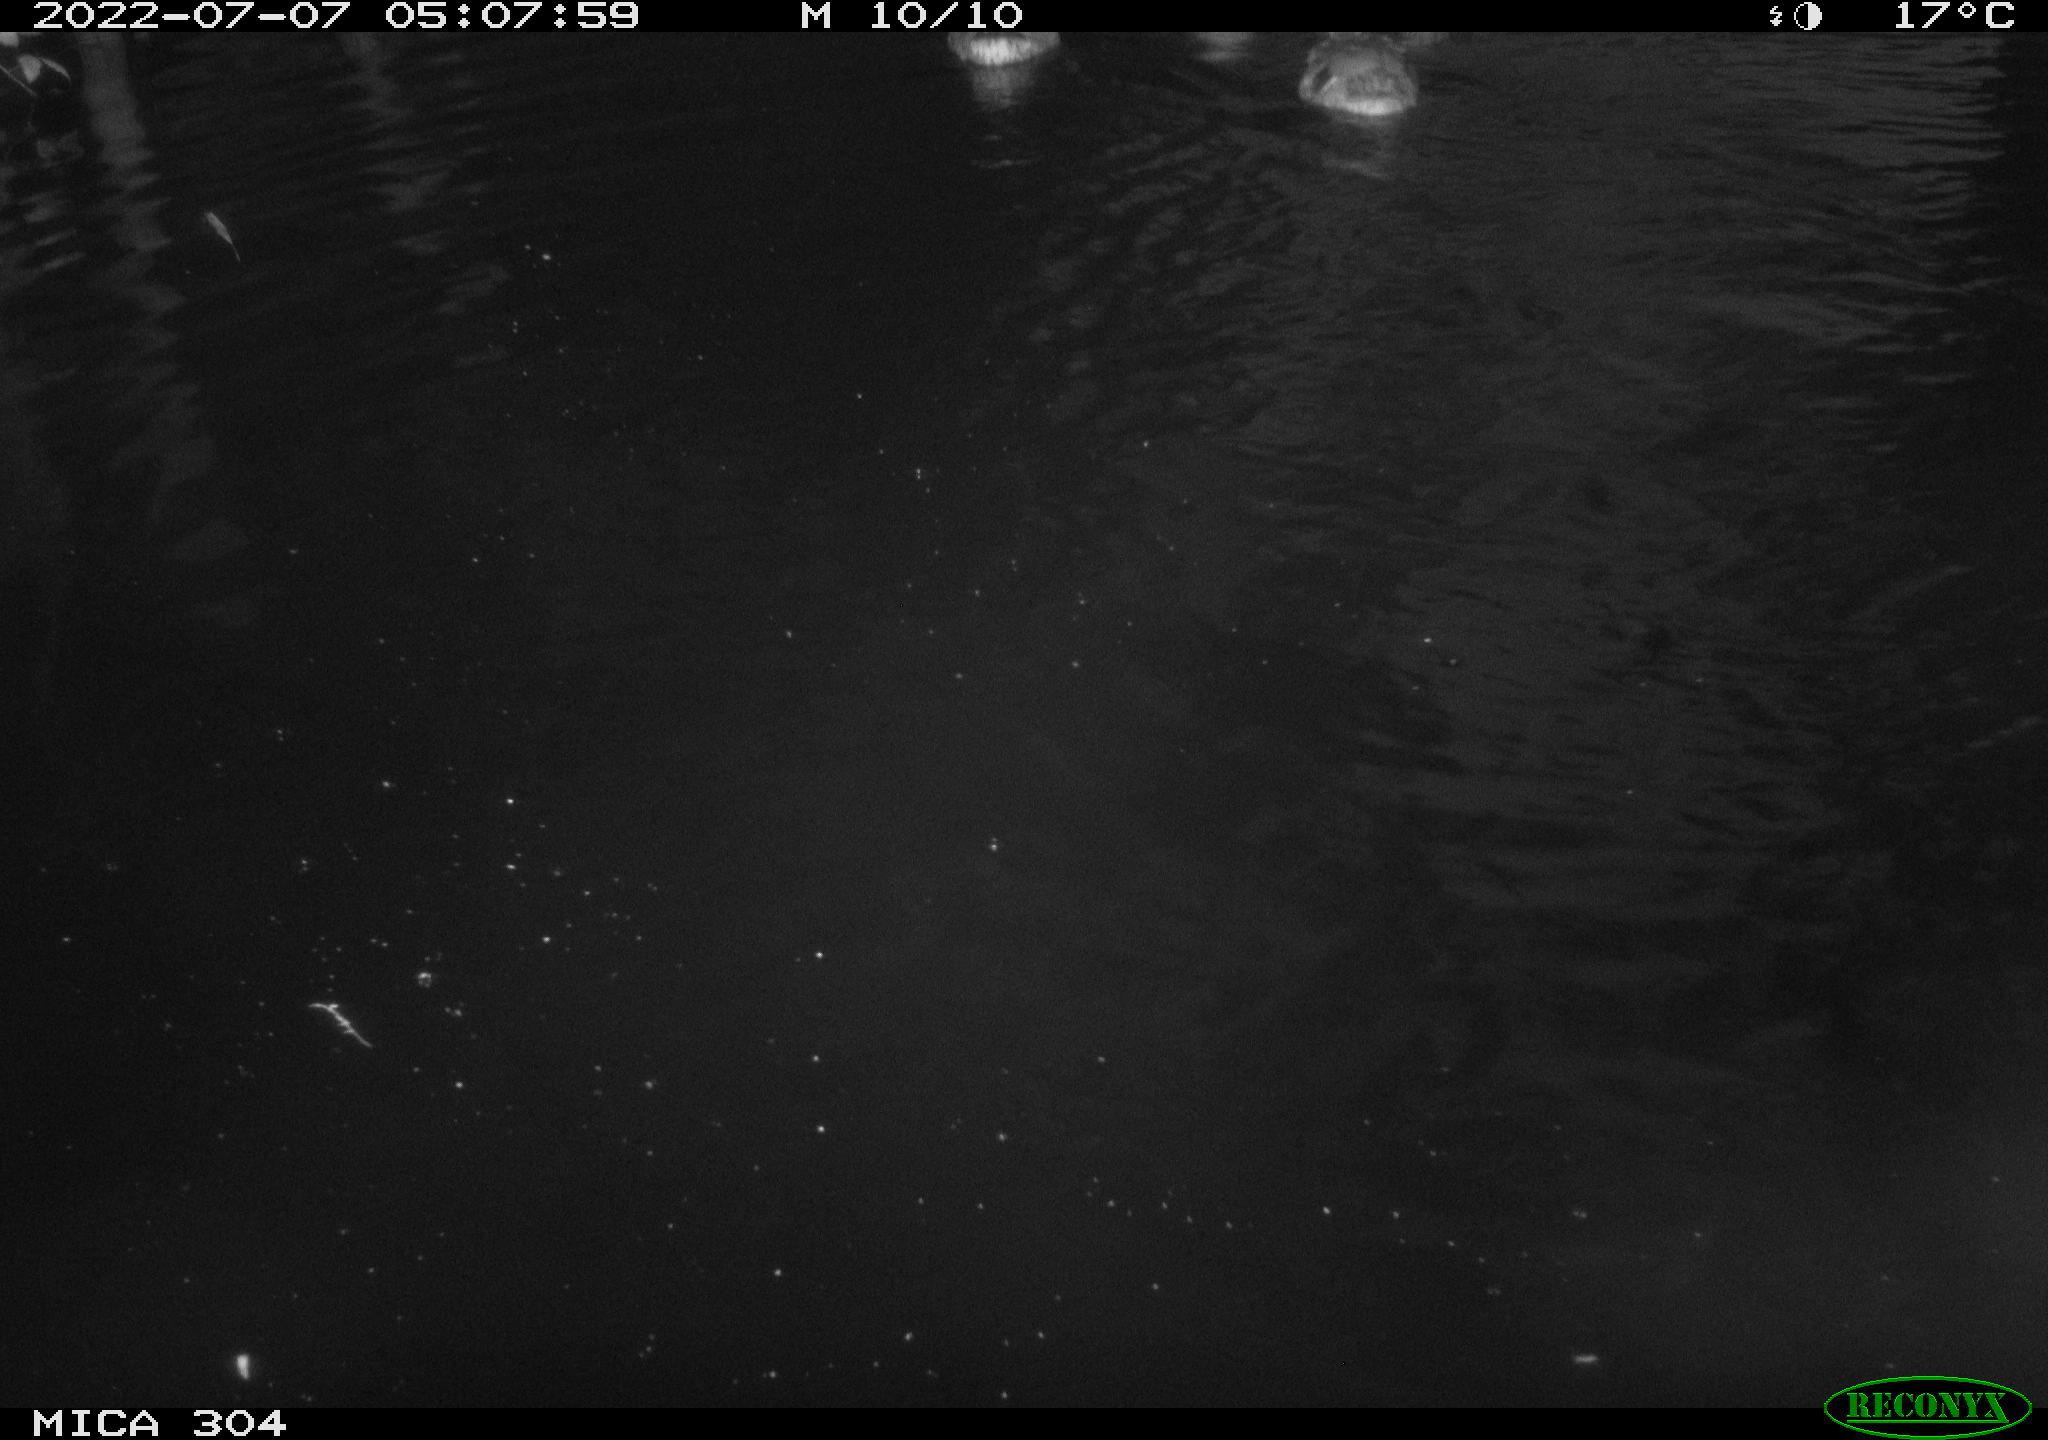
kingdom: Animalia
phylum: Chordata
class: Aves
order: Anseriformes
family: Anatidae
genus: Anas
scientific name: Anas platyrhynchos
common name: Mallard
